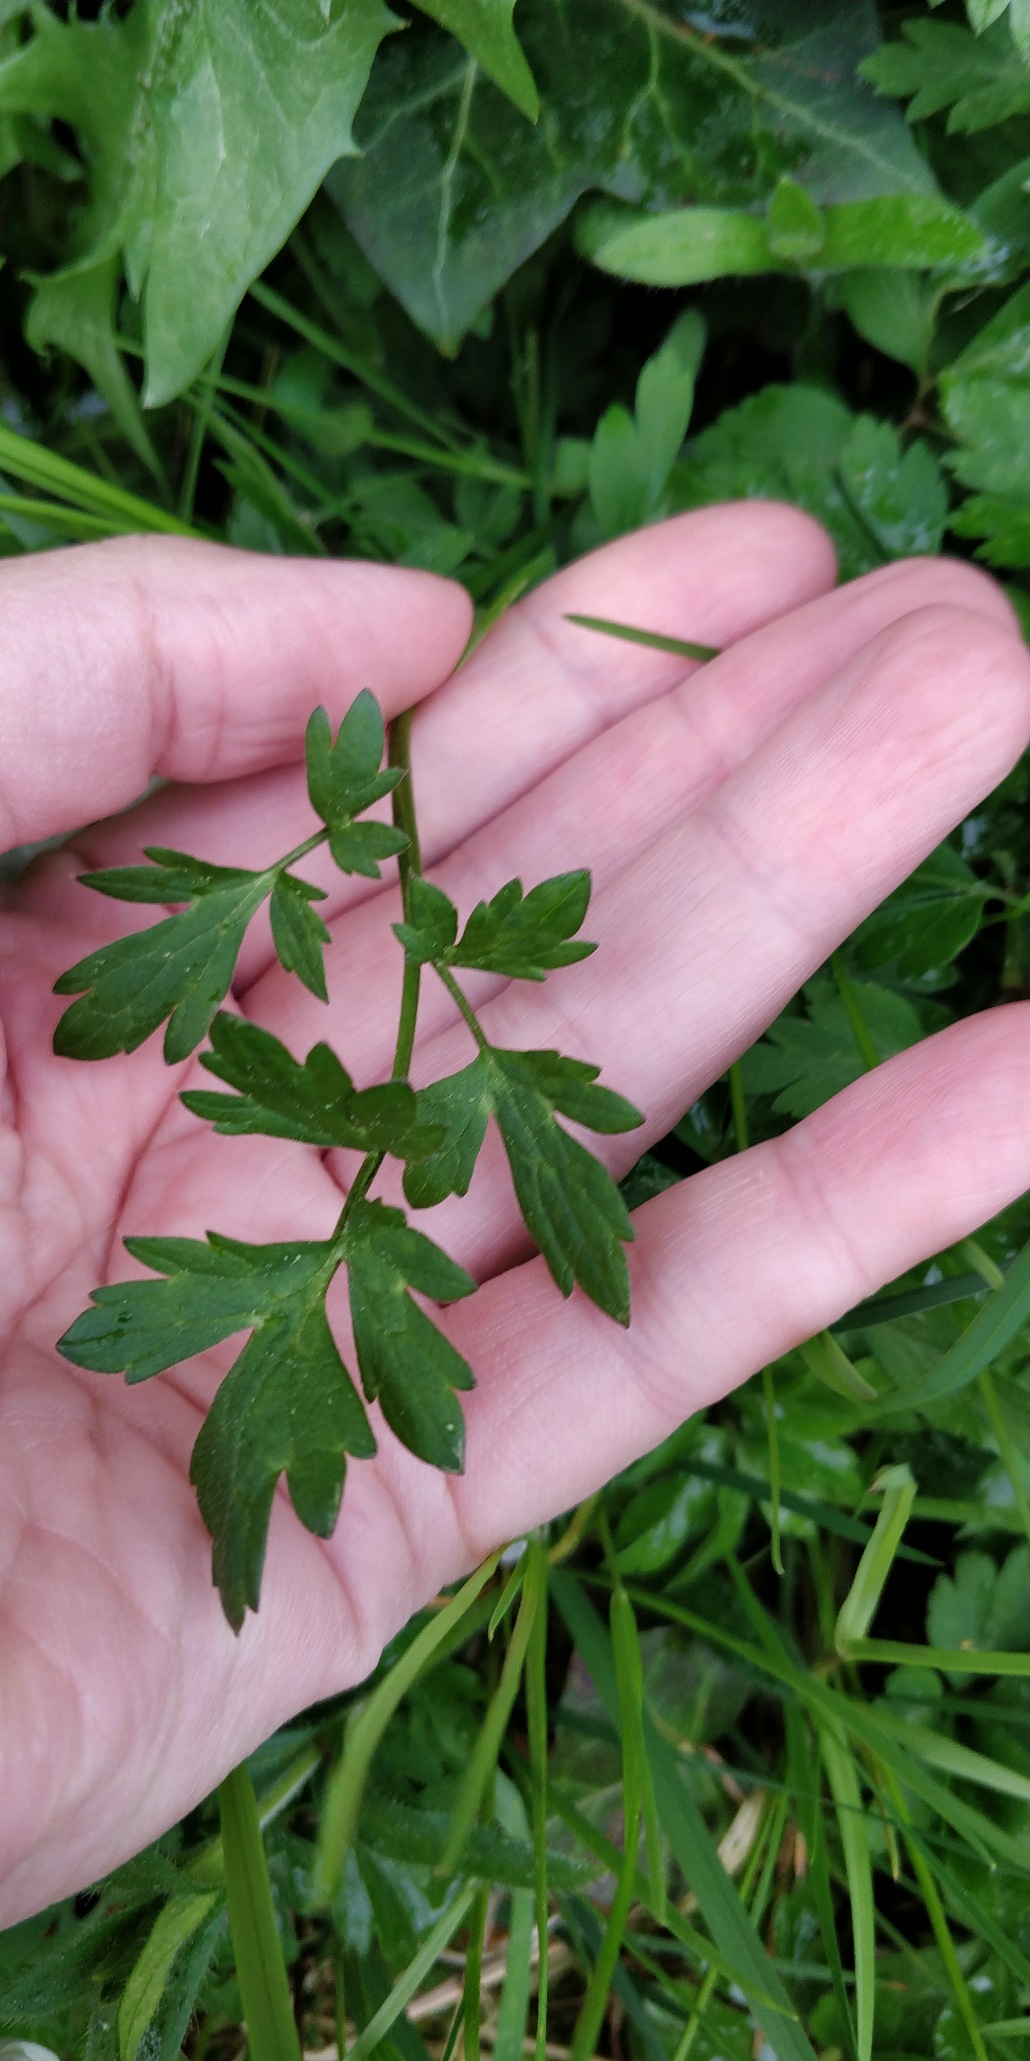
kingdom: Plantae
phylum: Tracheophyta
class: Magnoliopsida
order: Ranunculales
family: Ranunculaceae
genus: Ranunculus
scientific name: Ranunculus repens
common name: Lav ranunkel
